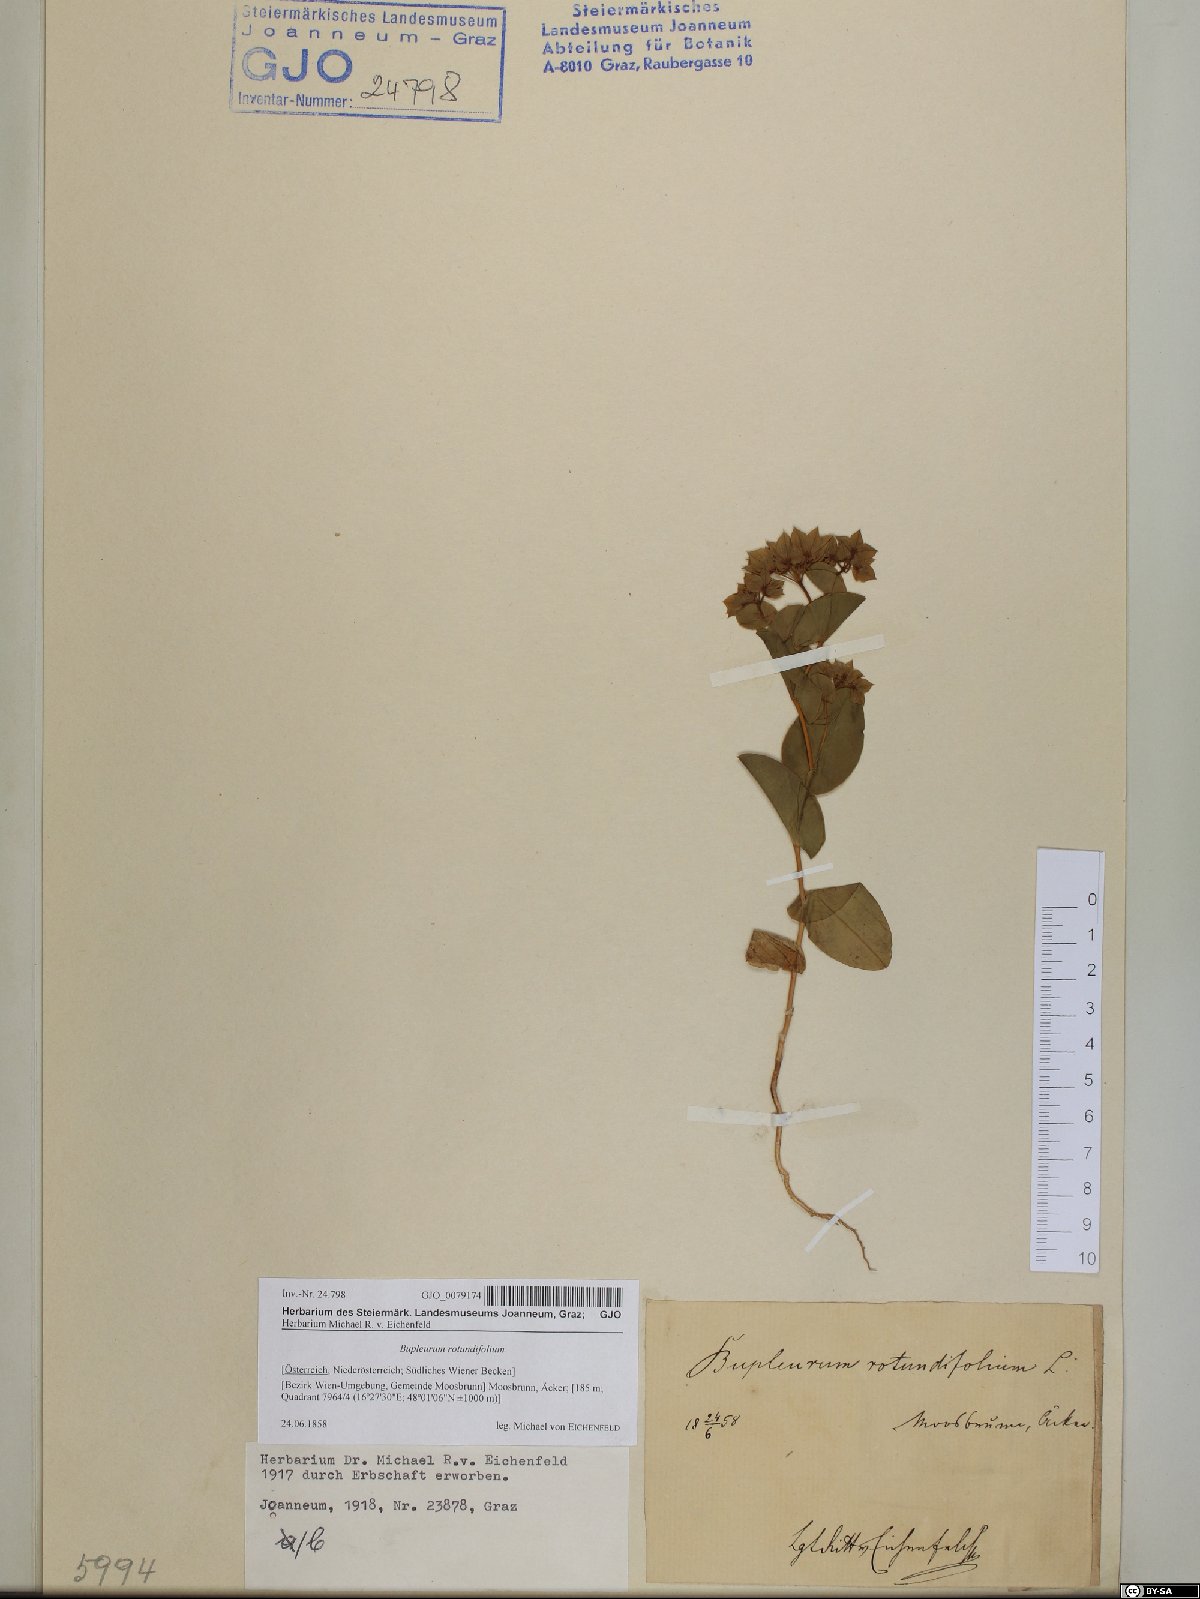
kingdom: Plantae
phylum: Tracheophyta
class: Magnoliopsida
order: Apiales
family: Apiaceae
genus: Bupleurum
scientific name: Bupleurum rotundifolium
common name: Thorow-wax
